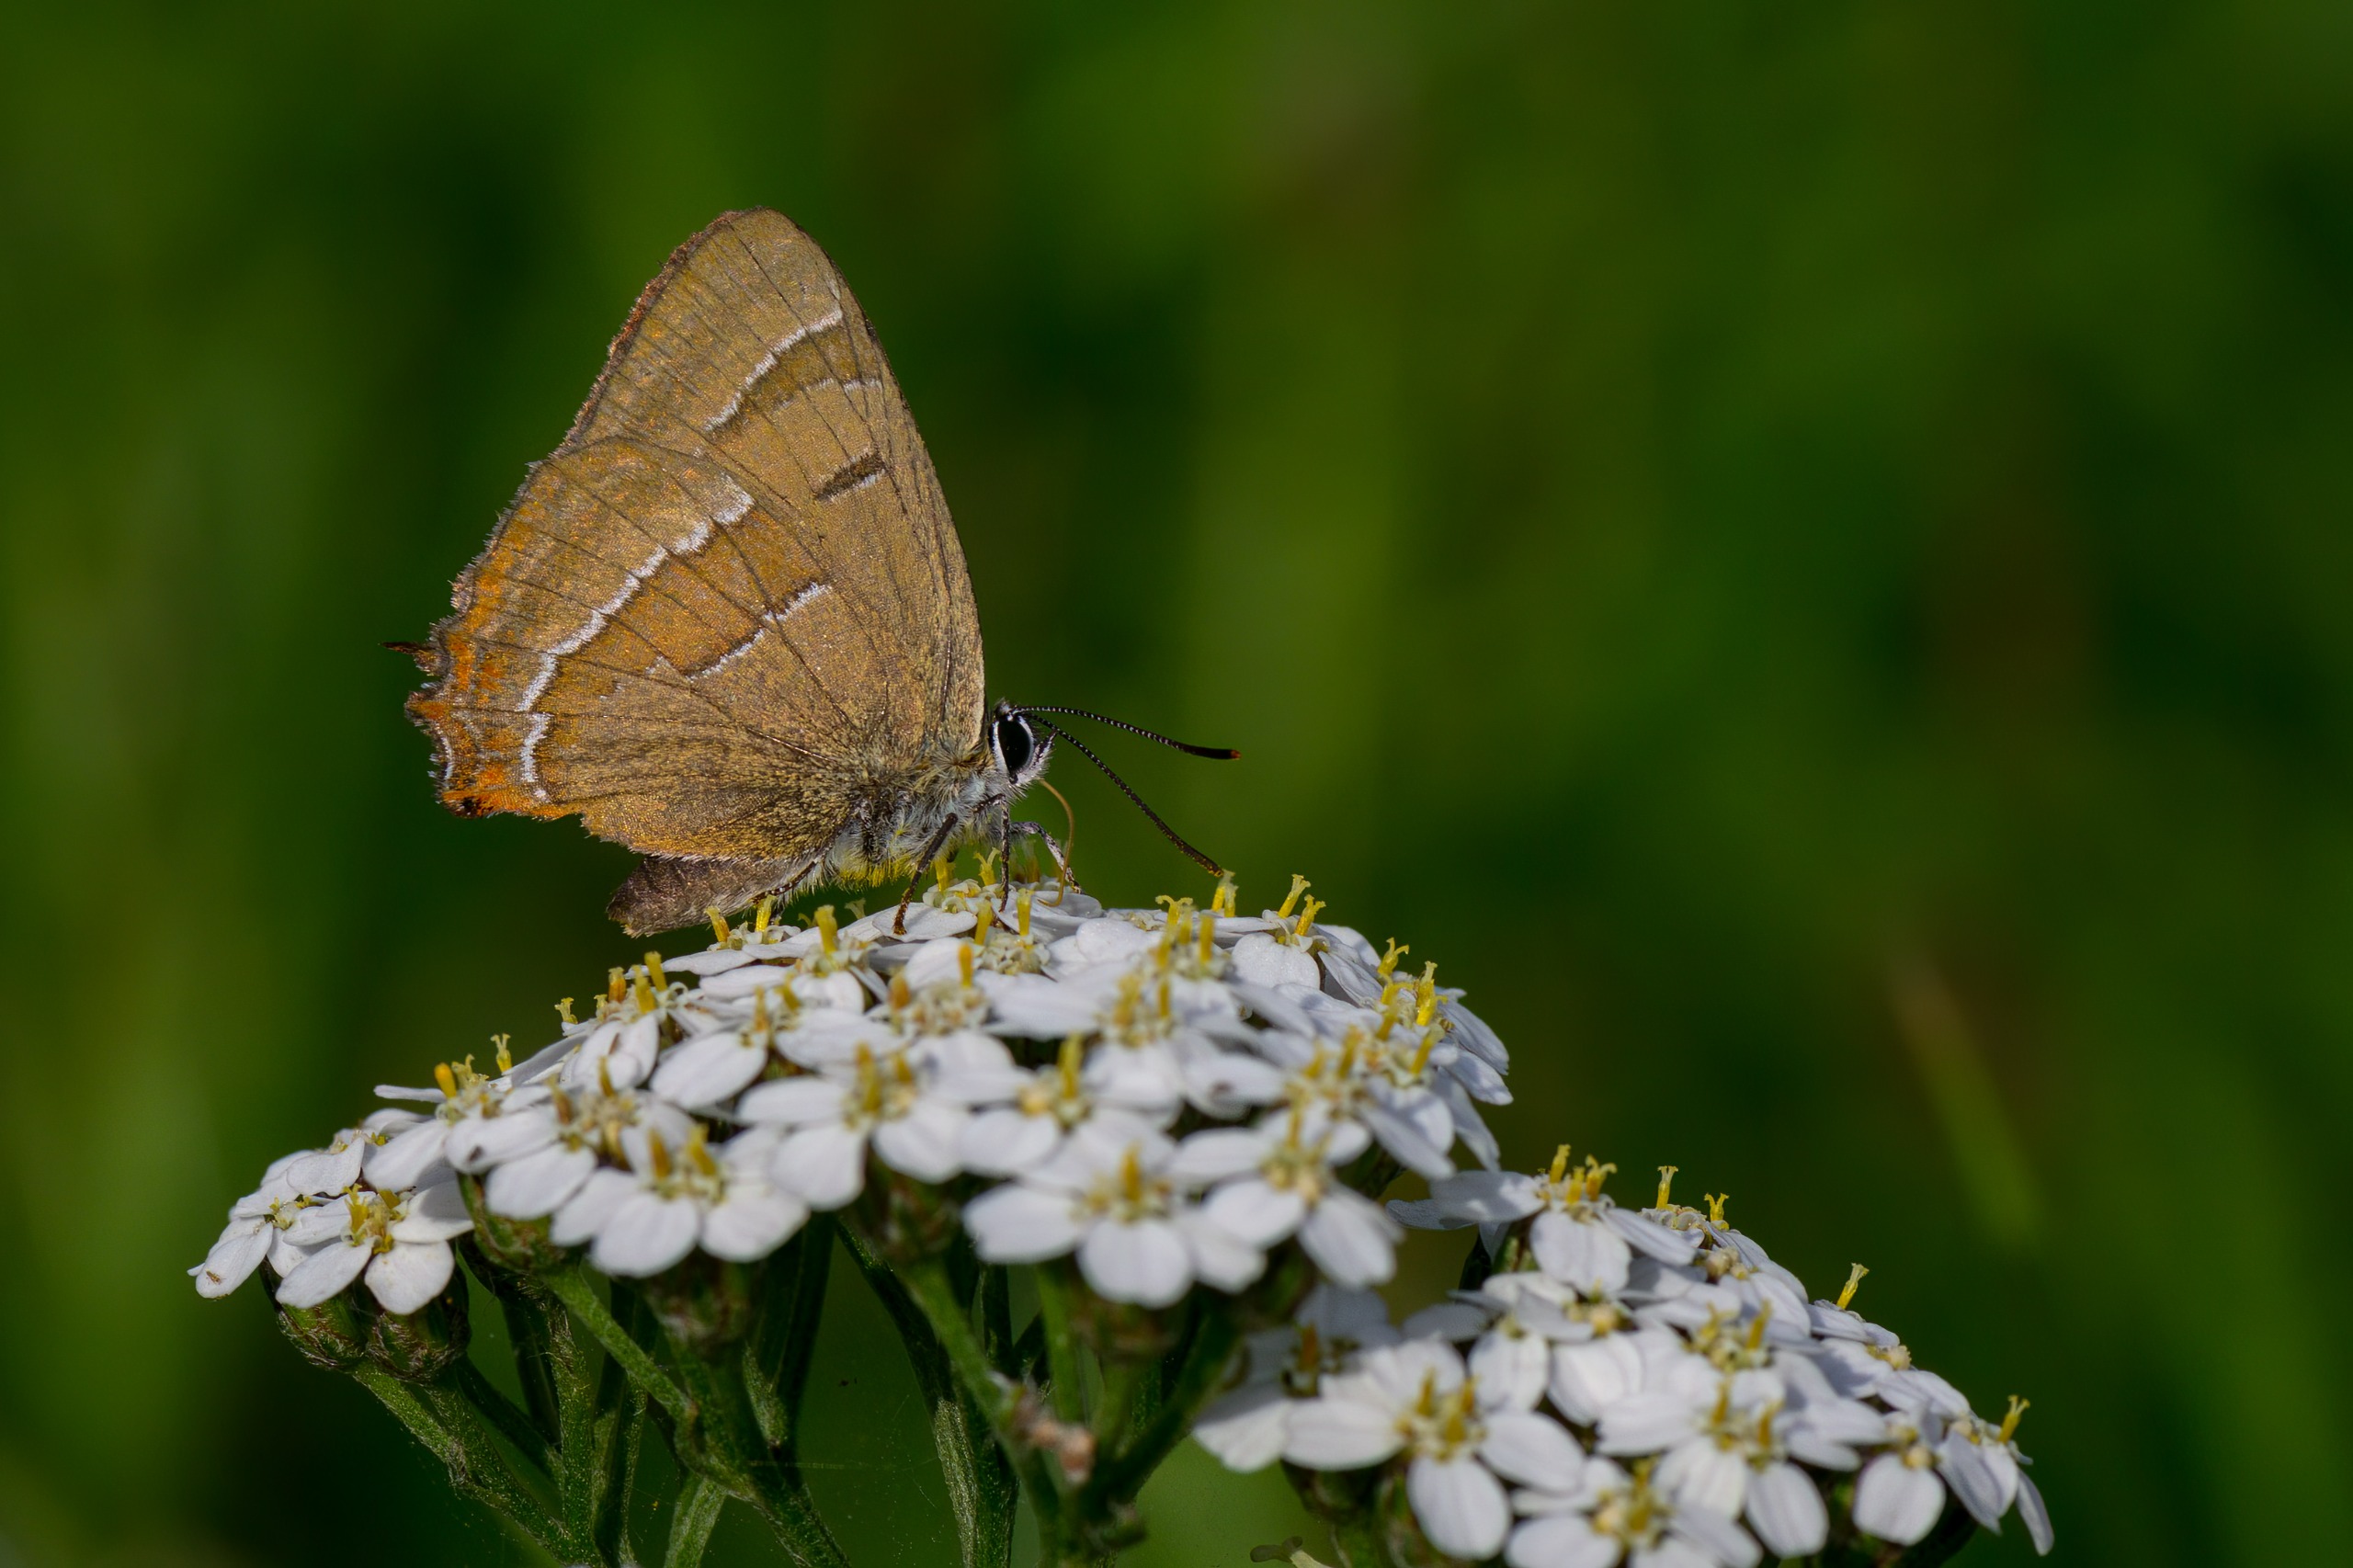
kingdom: Animalia
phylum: Arthropoda
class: Insecta
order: Lepidoptera
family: Lycaenidae
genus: Thecla
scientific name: Thecla betulae
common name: Guldhale
